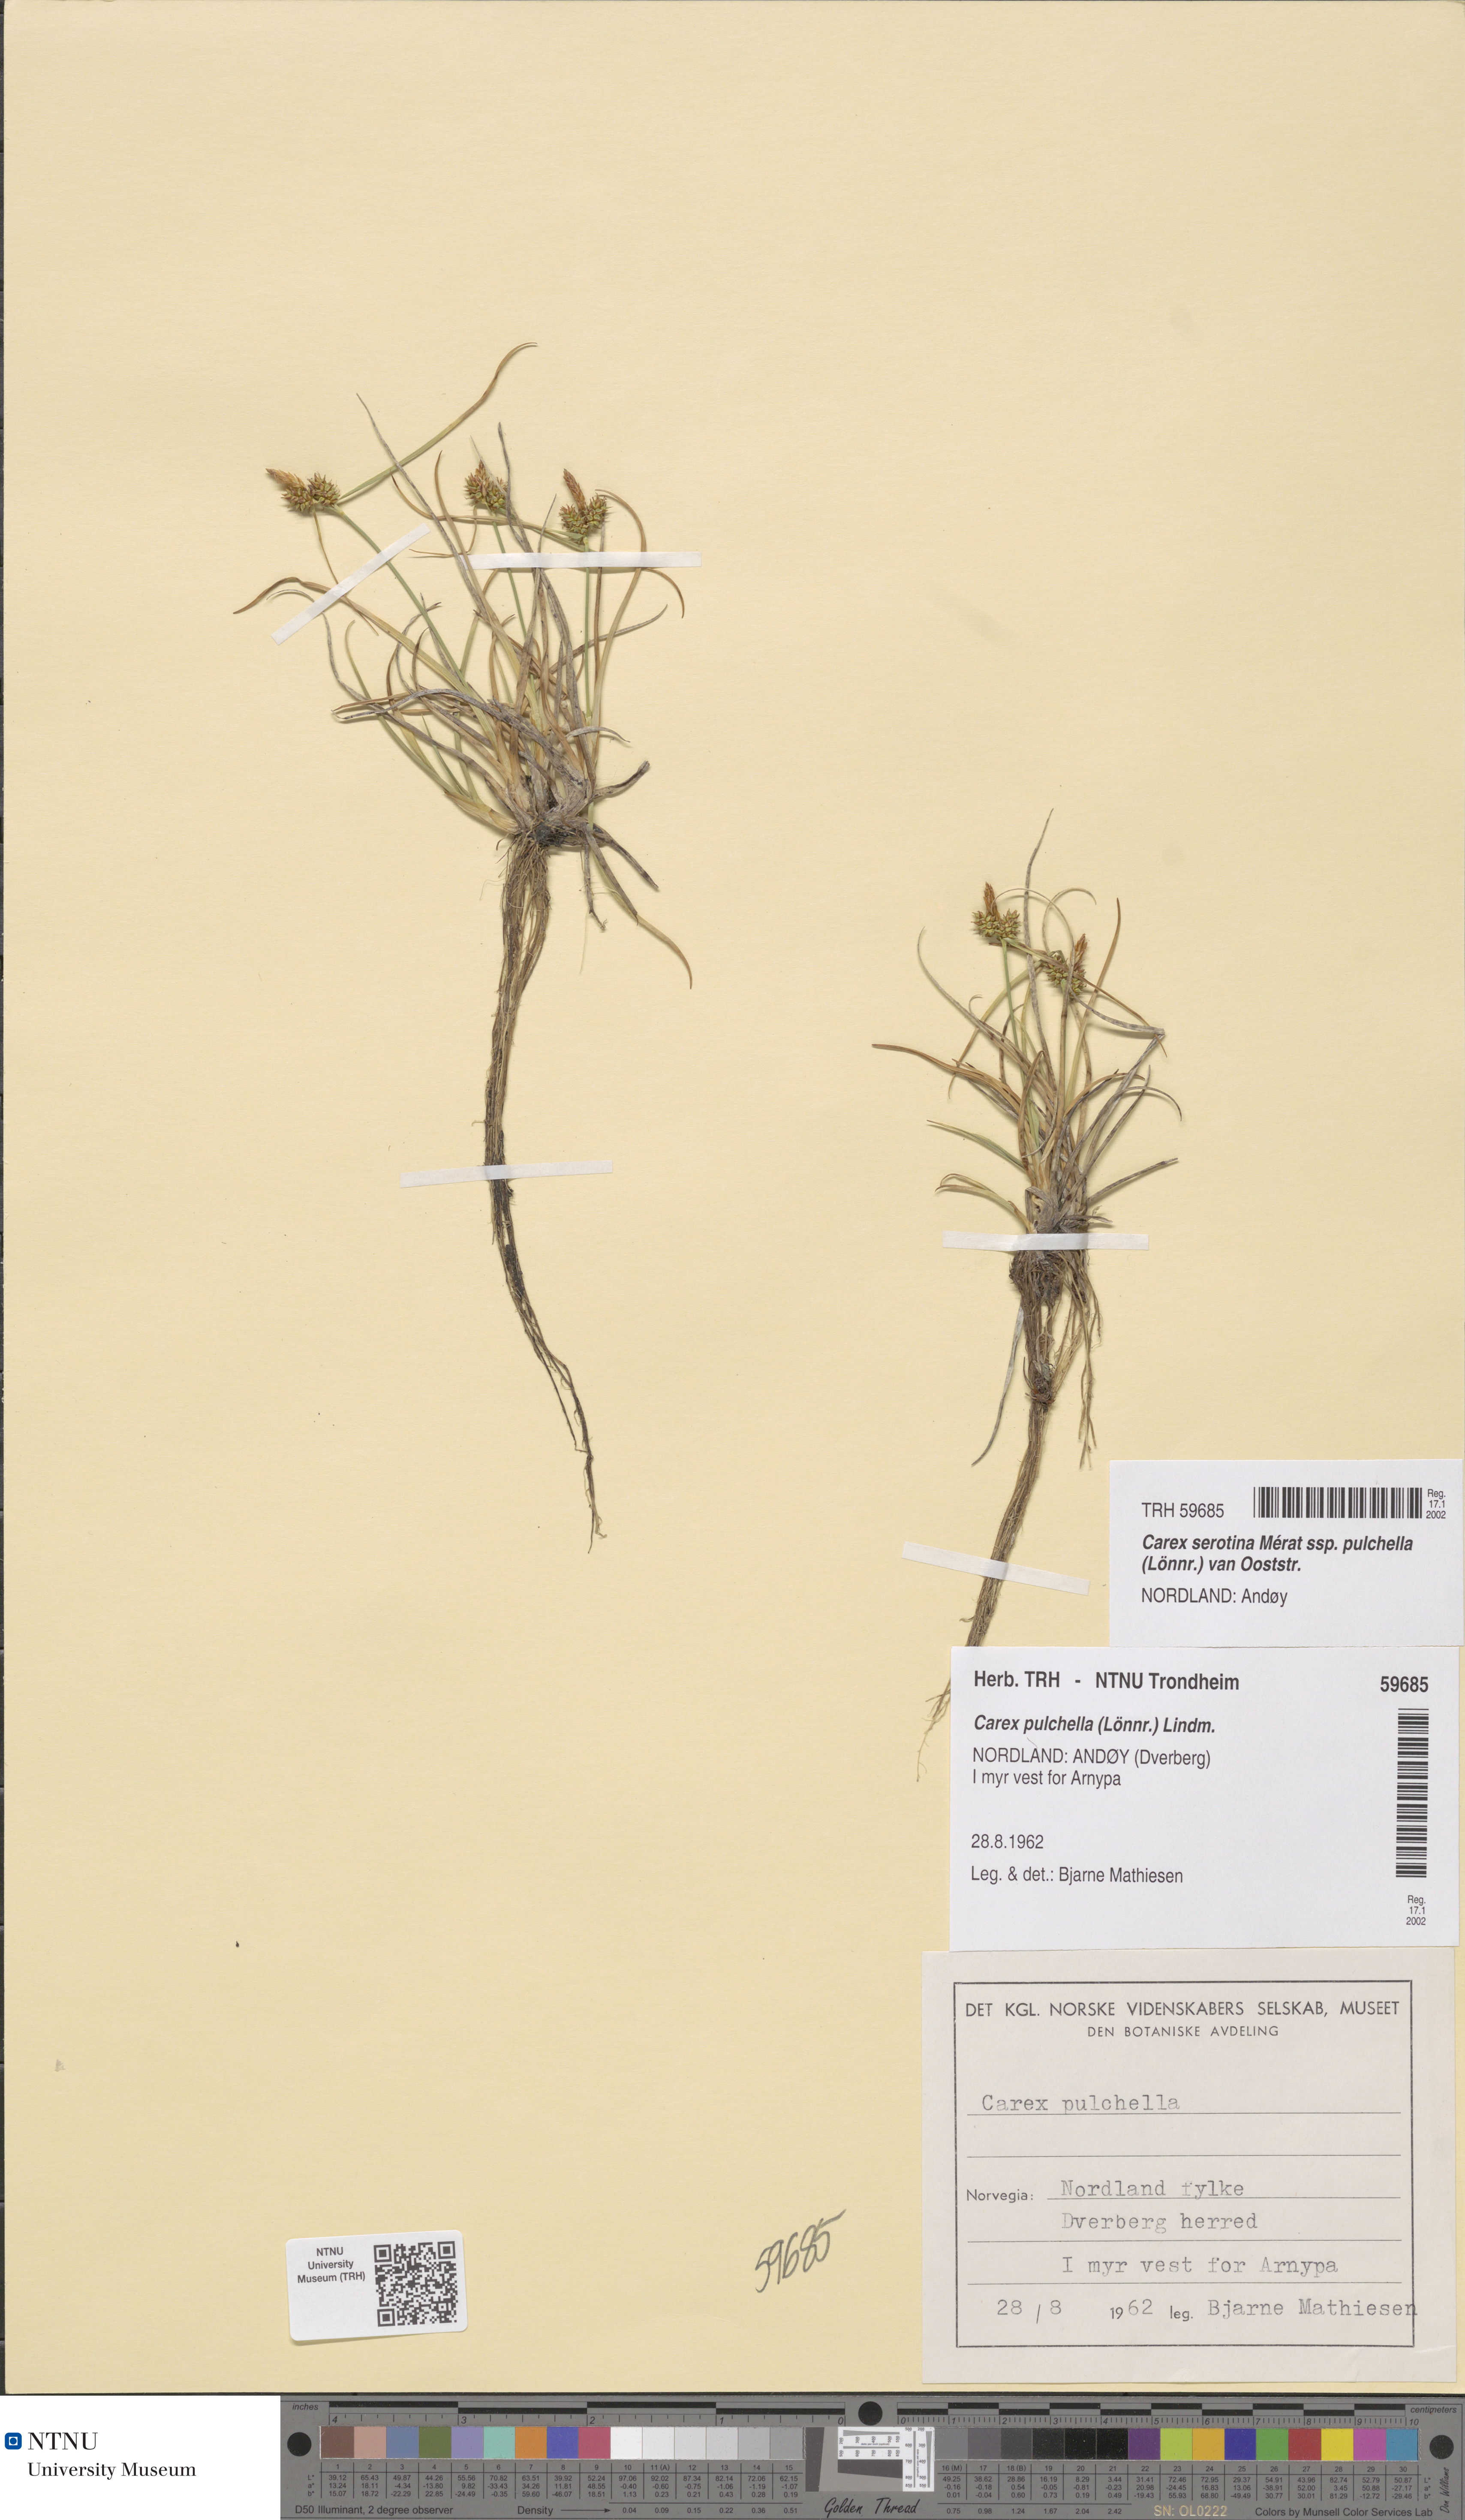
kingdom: Plantae
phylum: Tracheophyta
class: Liliopsida
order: Poales
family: Cyperaceae
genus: Carex
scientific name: Carex oederi
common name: Common & small-fruited yellow-sedge
